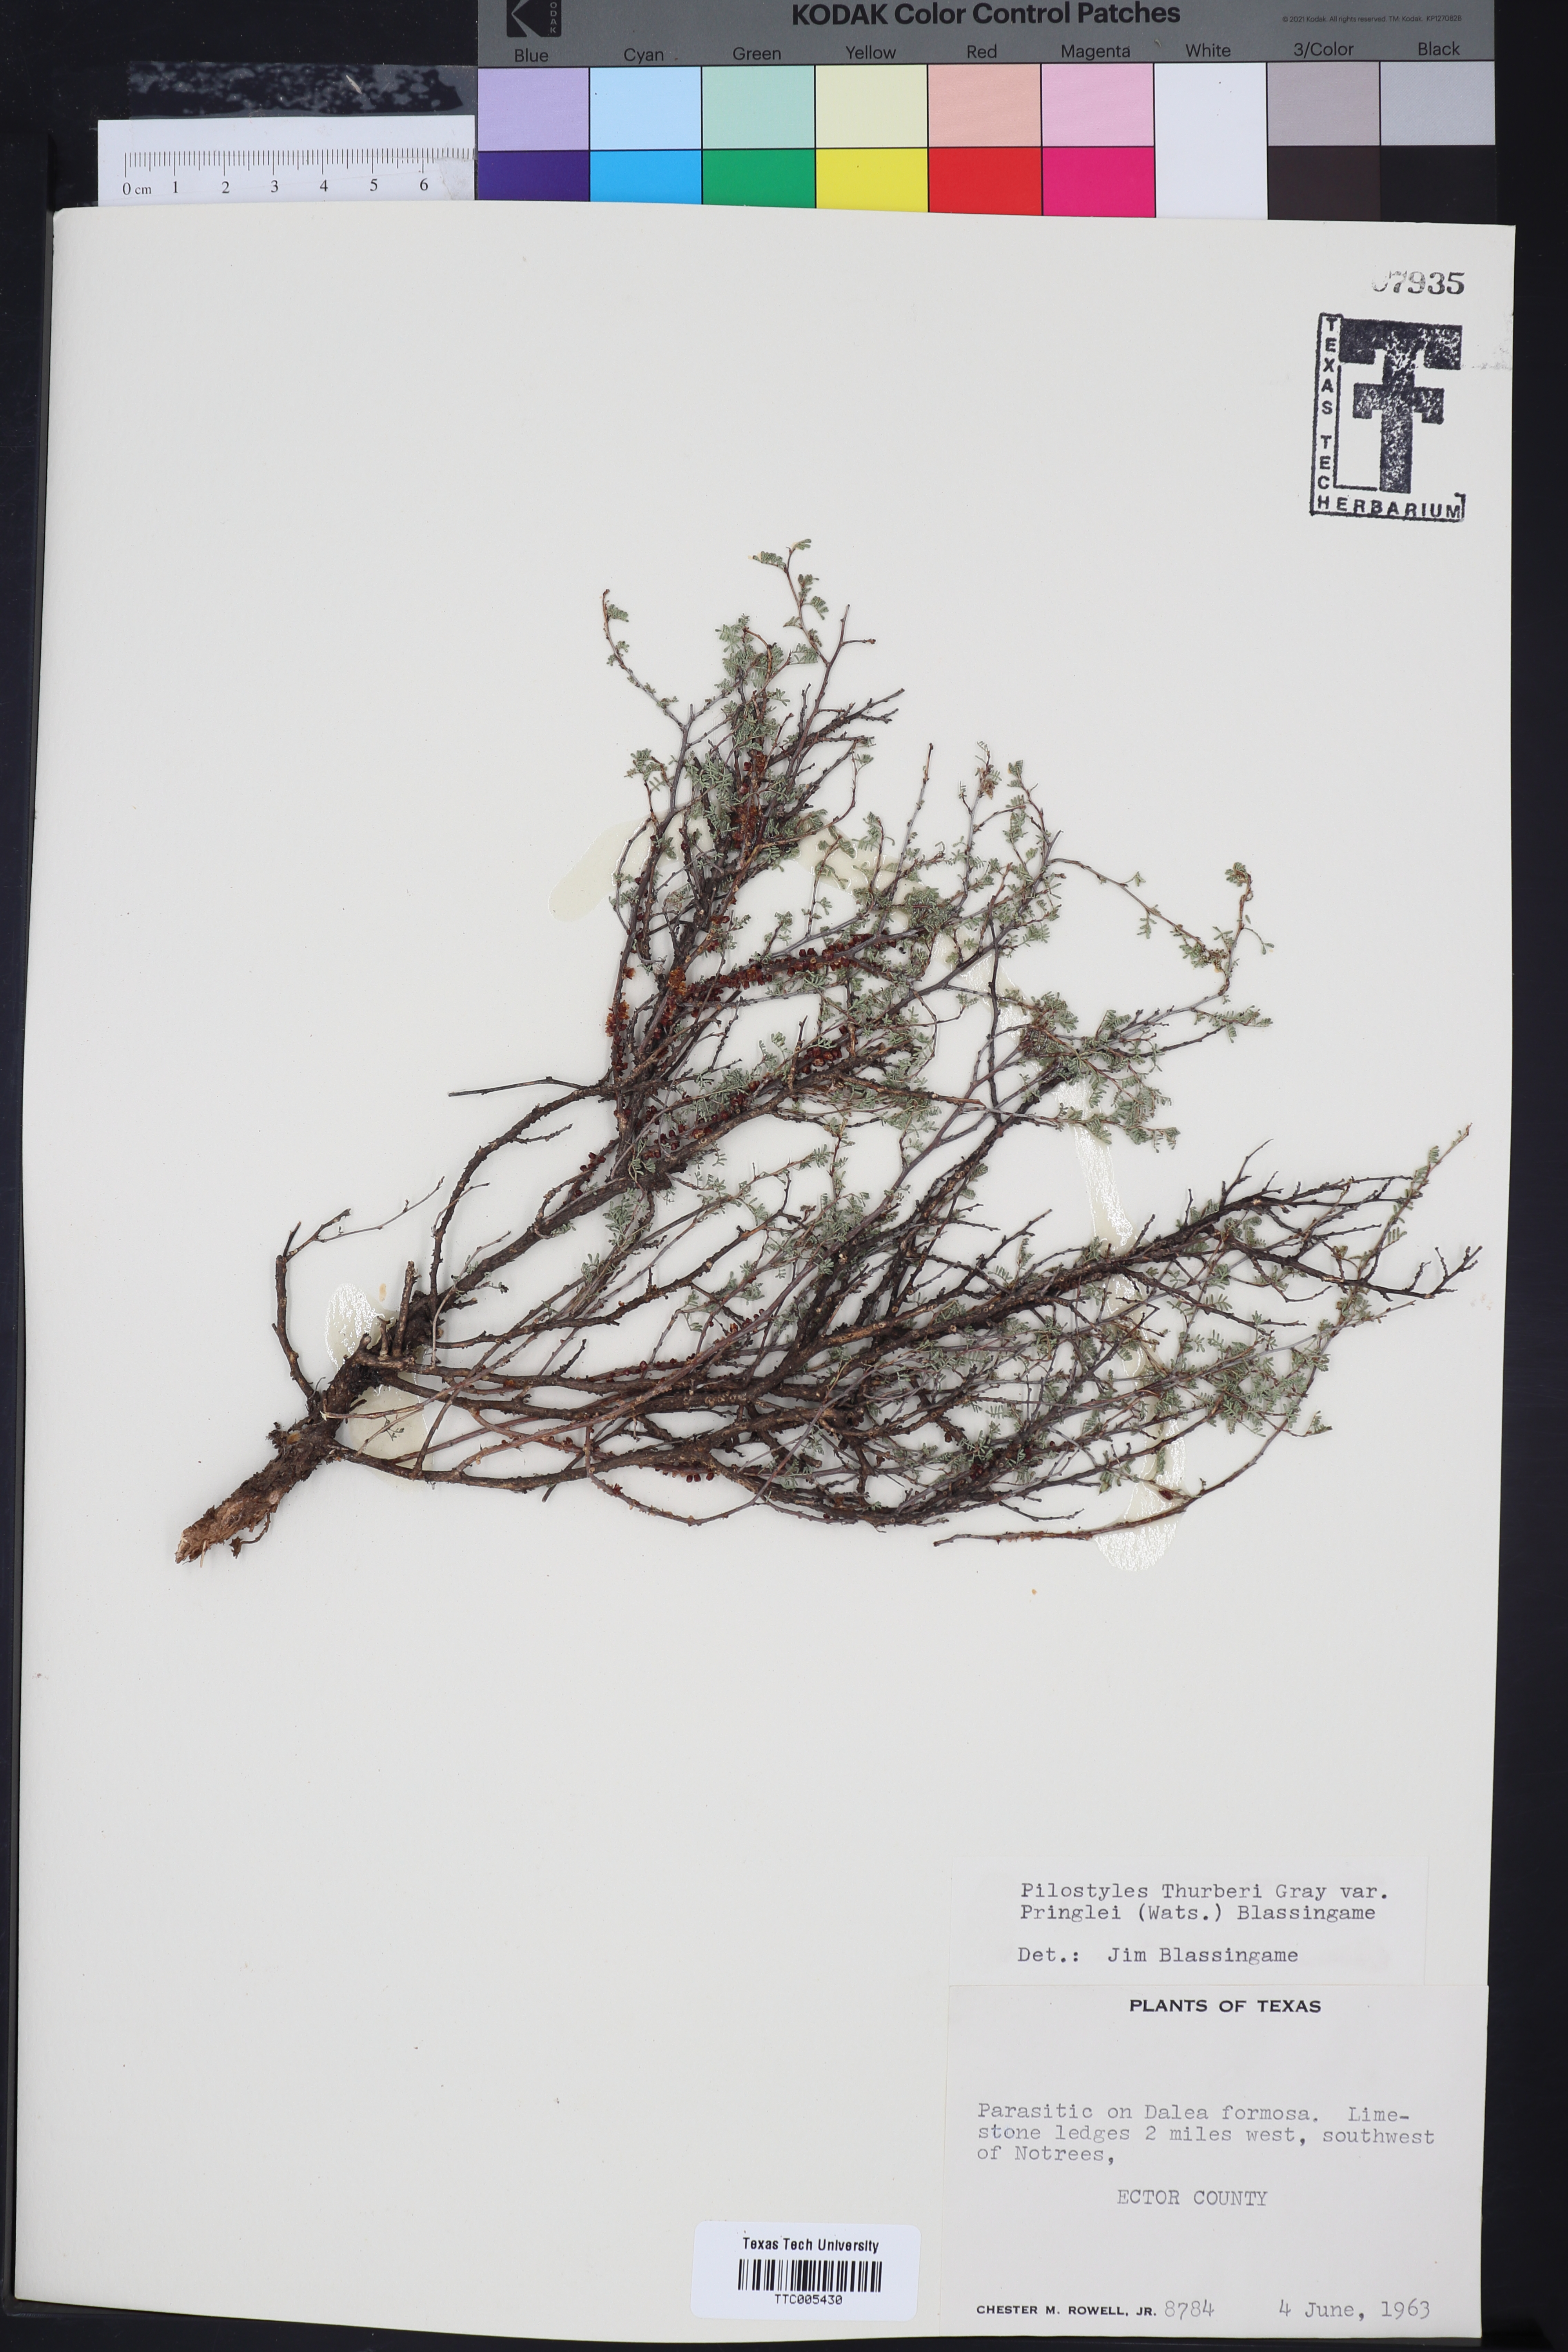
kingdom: Plantae
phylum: Tracheophyta
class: Magnoliopsida
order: Cucurbitales
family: Apodanthaceae
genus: Pilostyles
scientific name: Pilostyles thurberi
